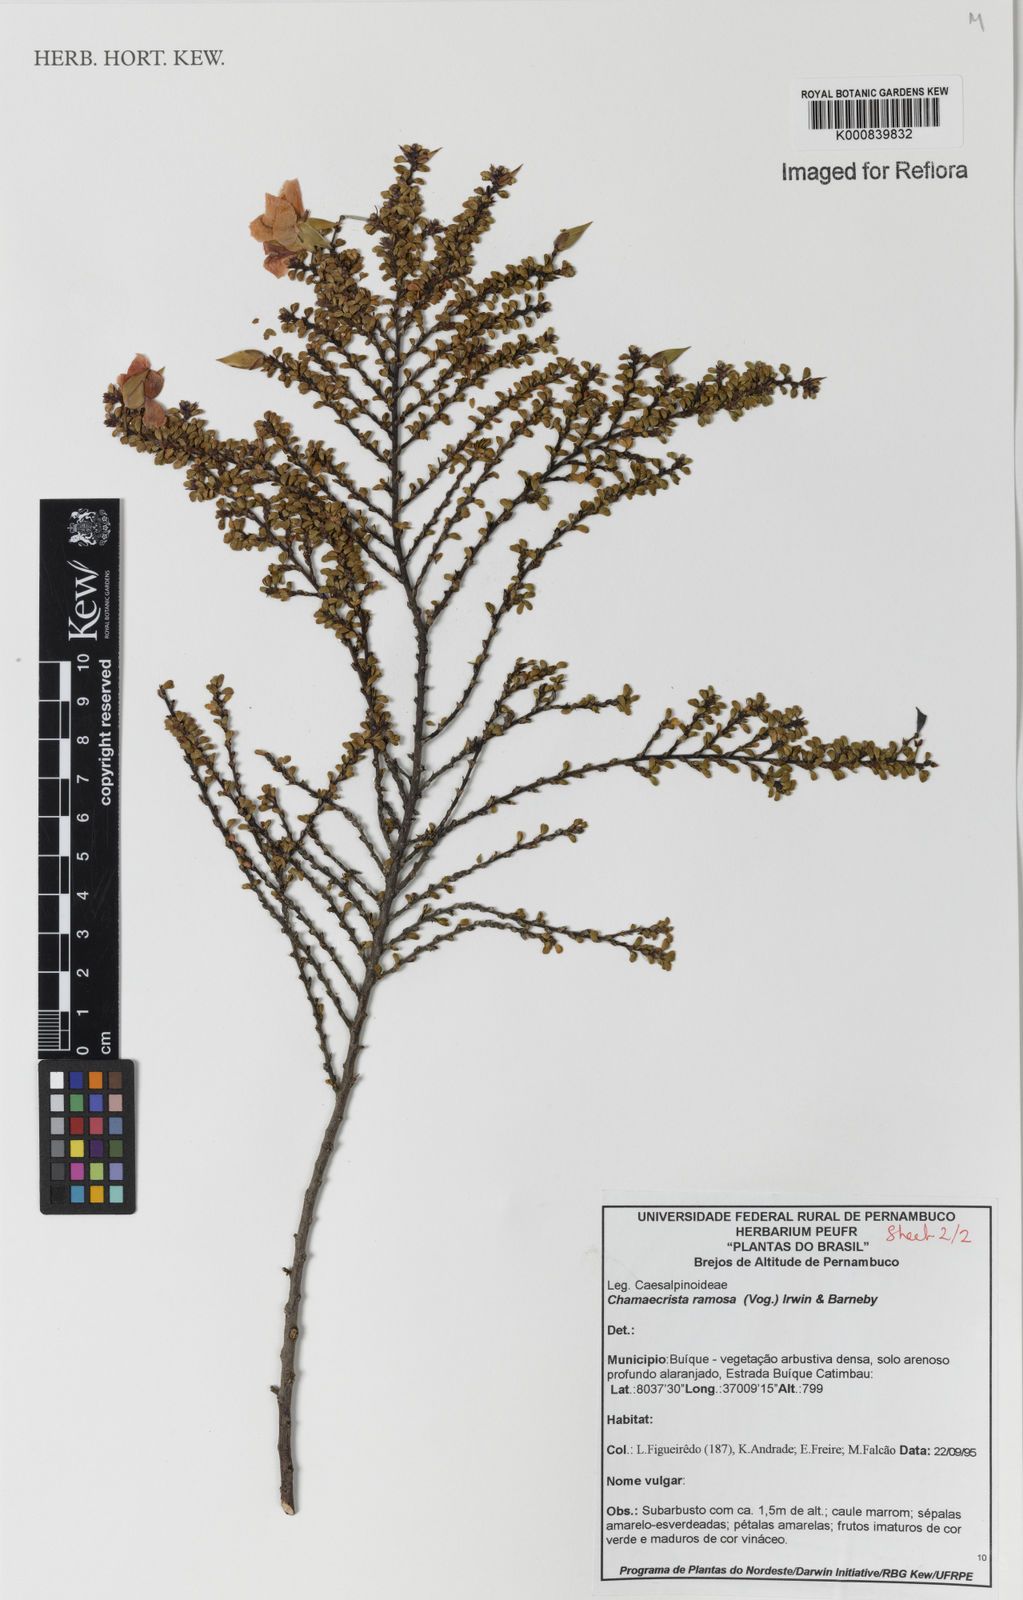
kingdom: Plantae
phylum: Tracheophyta
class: Magnoliopsida
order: Fabales
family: Fabaceae
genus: Chamaecrista
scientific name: Chamaecrista ramosa
